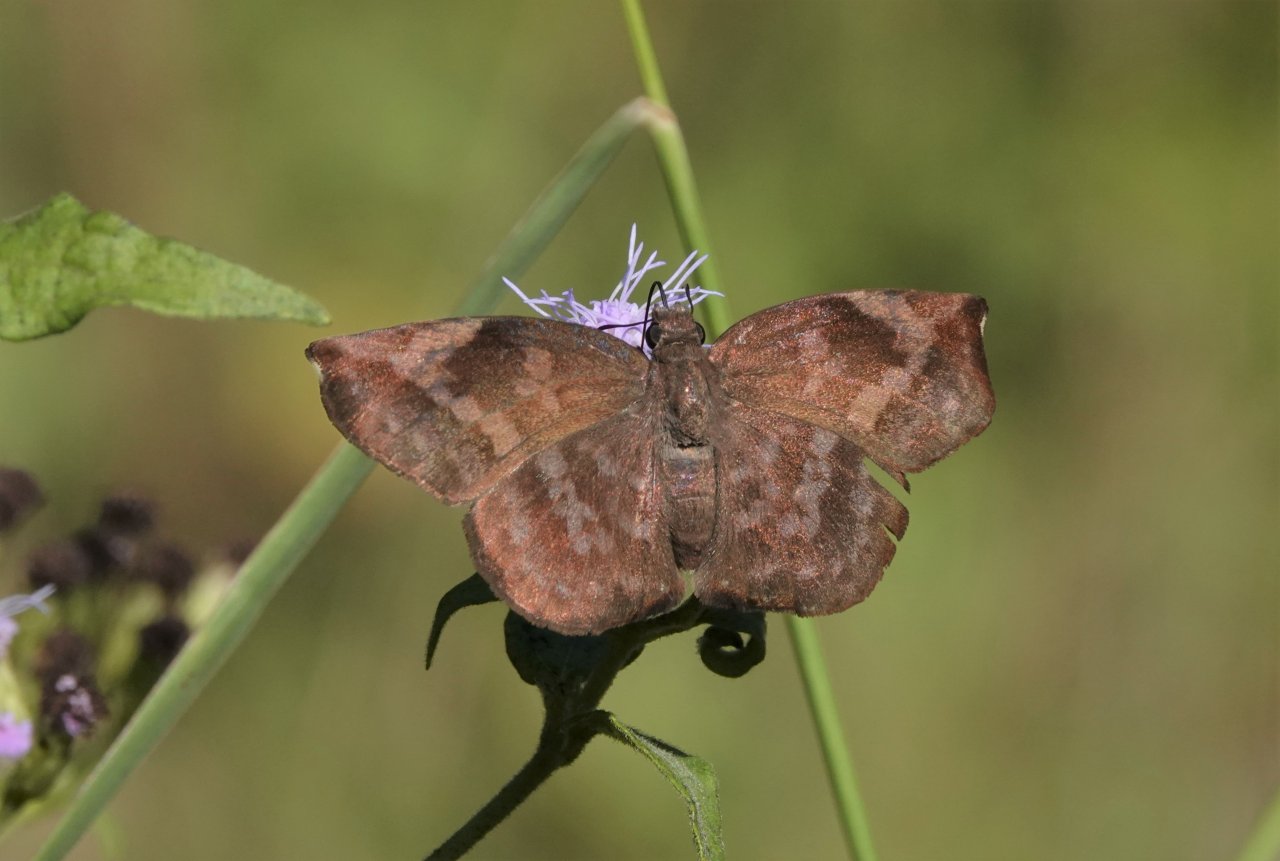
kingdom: Animalia
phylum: Arthropoda
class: Insecta
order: Lepidoptera
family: Hesperiidae
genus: Achlyodes
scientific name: Achlyodes thraso
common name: Sickle-winged Skipper
